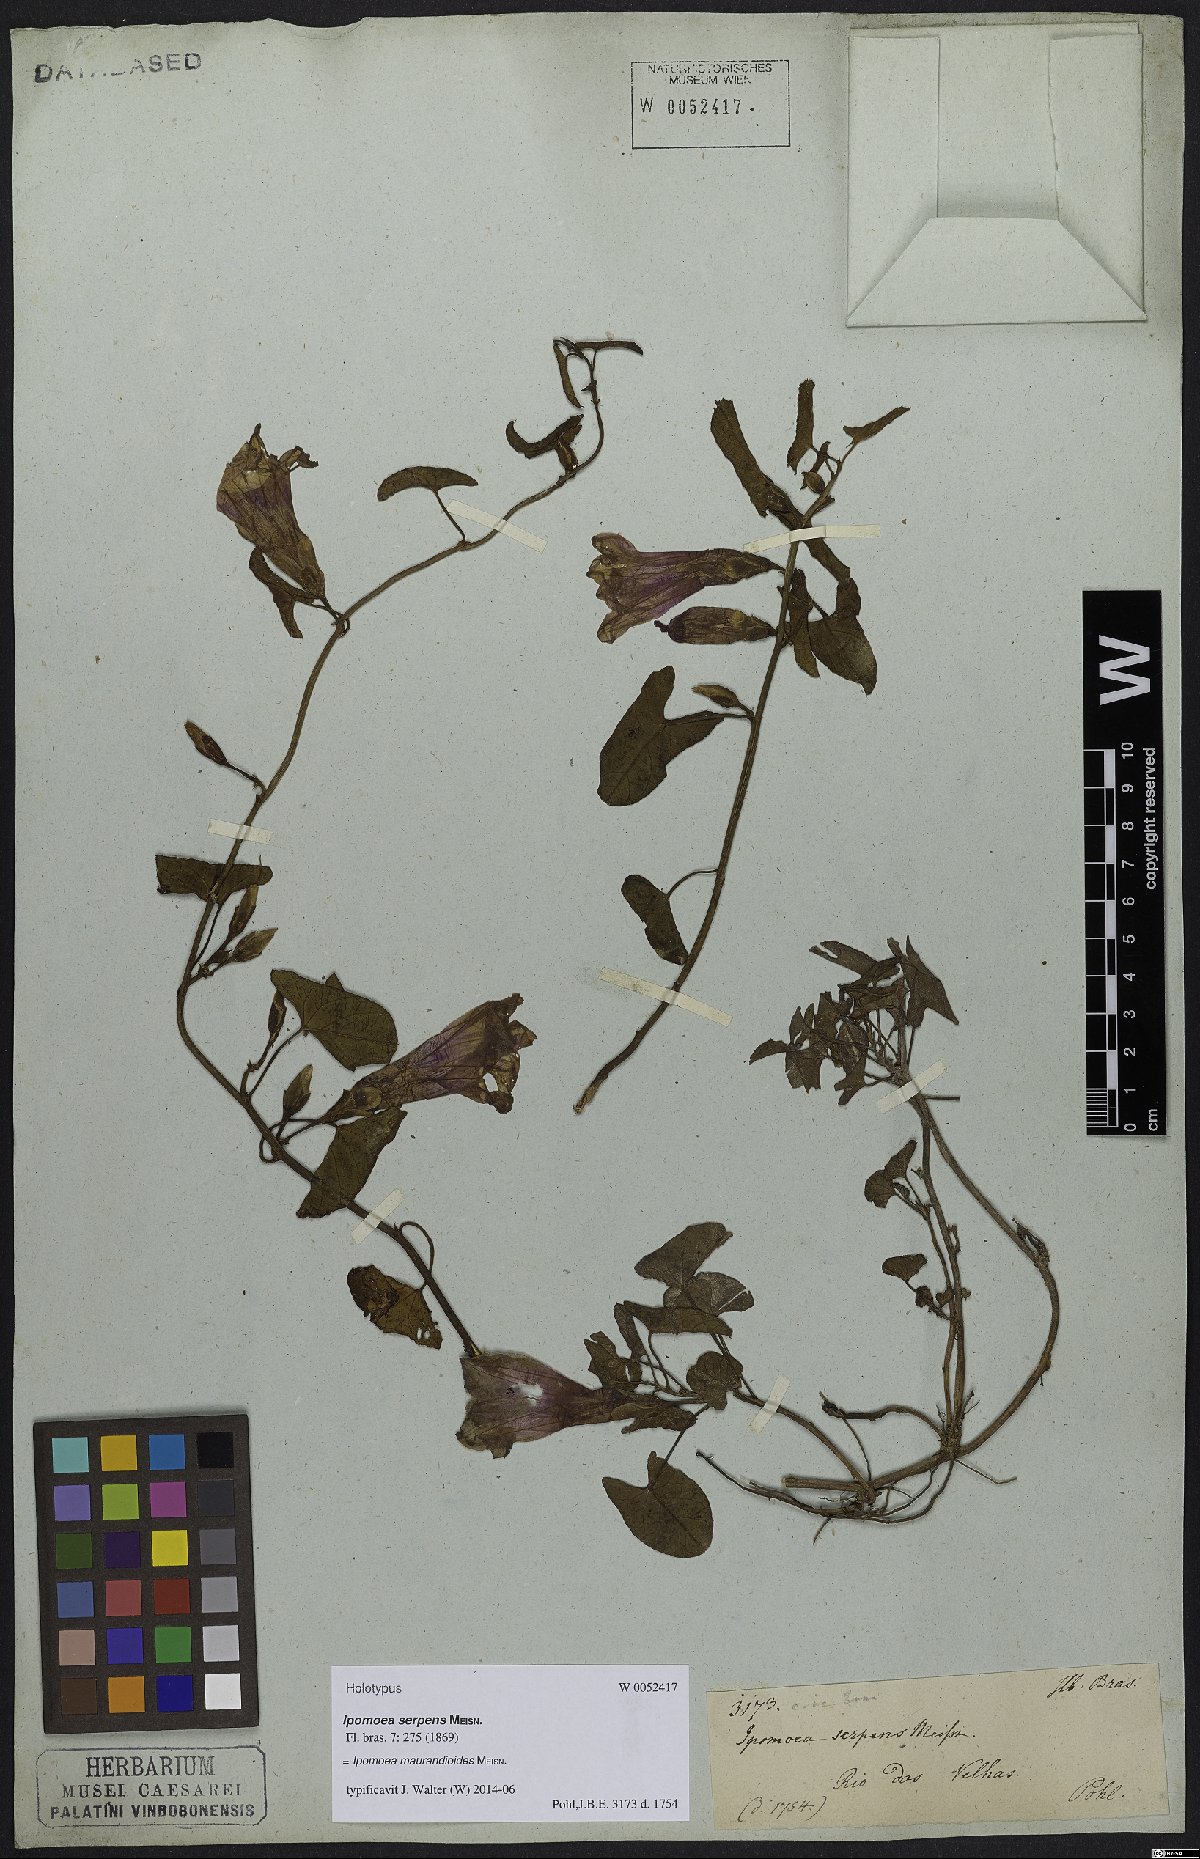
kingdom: Plantae
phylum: Tracheophyta
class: Magnoliopsida
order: Solanales
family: Convolvulaceae
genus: Ipomoea
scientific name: Ipomoea maurandioides
